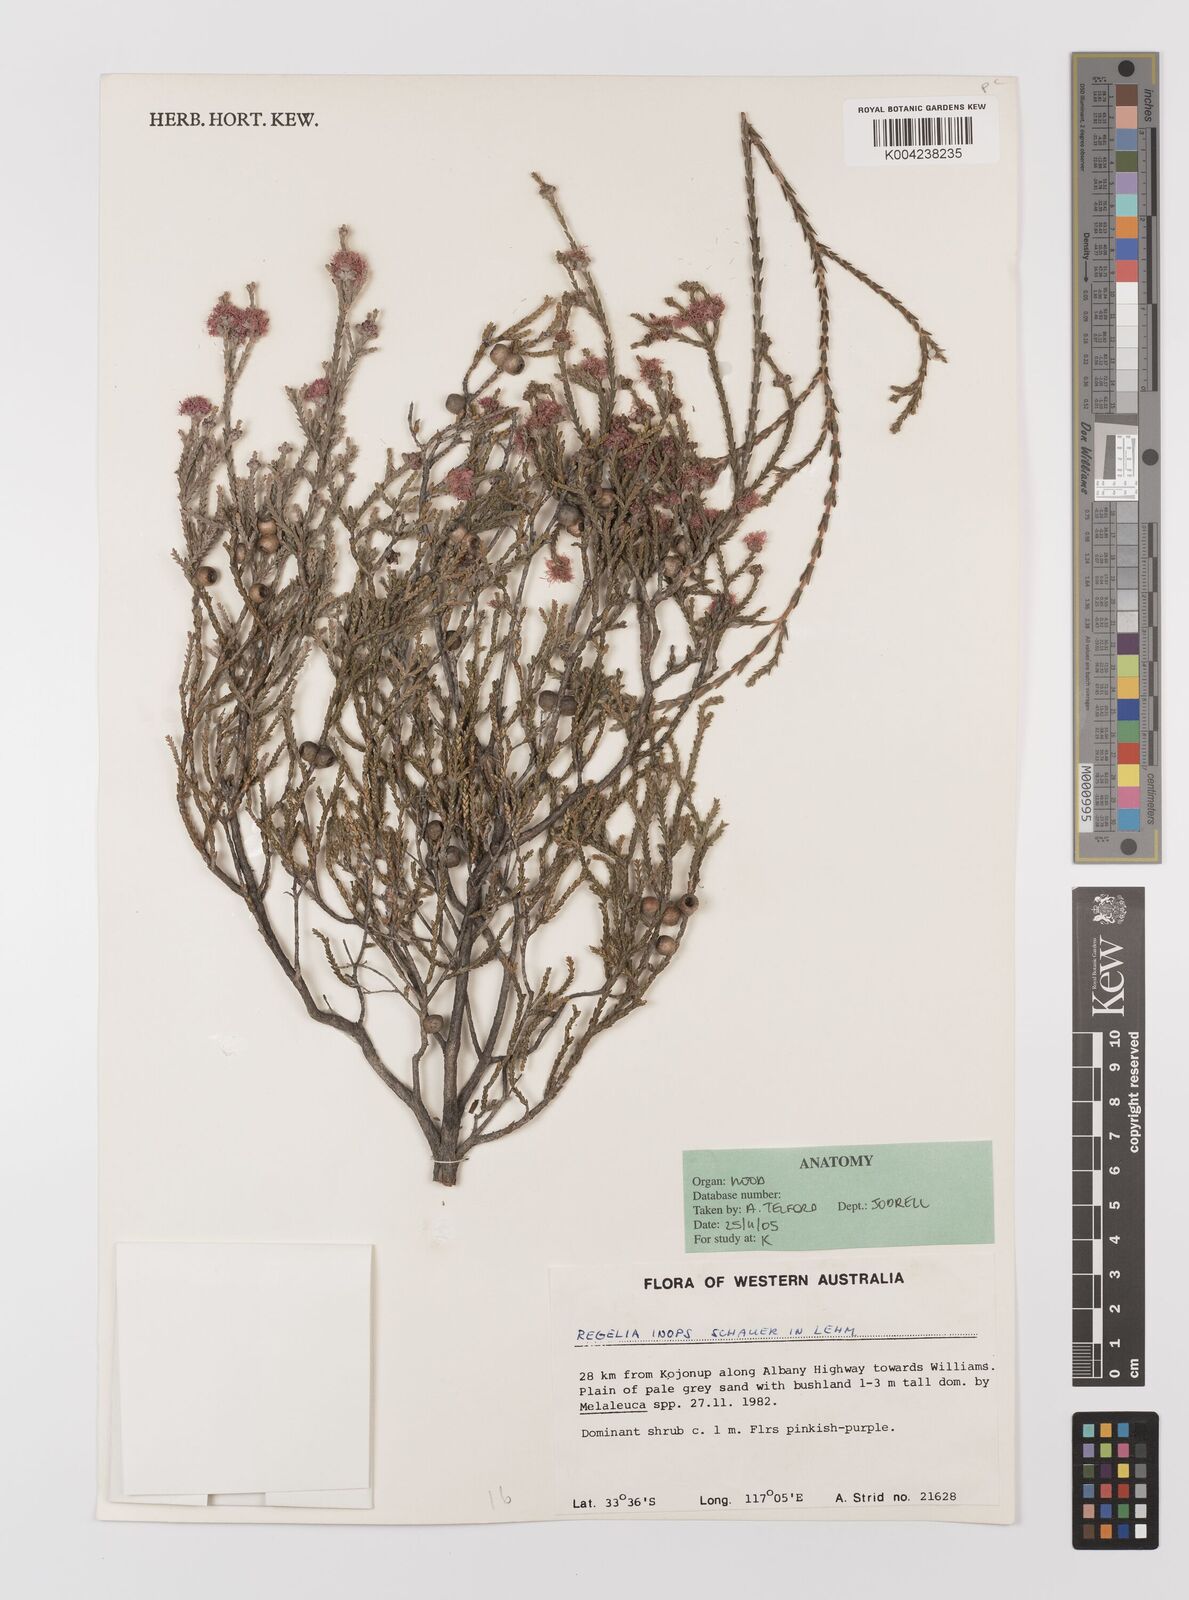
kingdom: Plantae
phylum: Tracheophyta
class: Magnoliopsida
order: Myrtales
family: Myrtaceae
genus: Melaleuca
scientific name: Melaleuca inops
